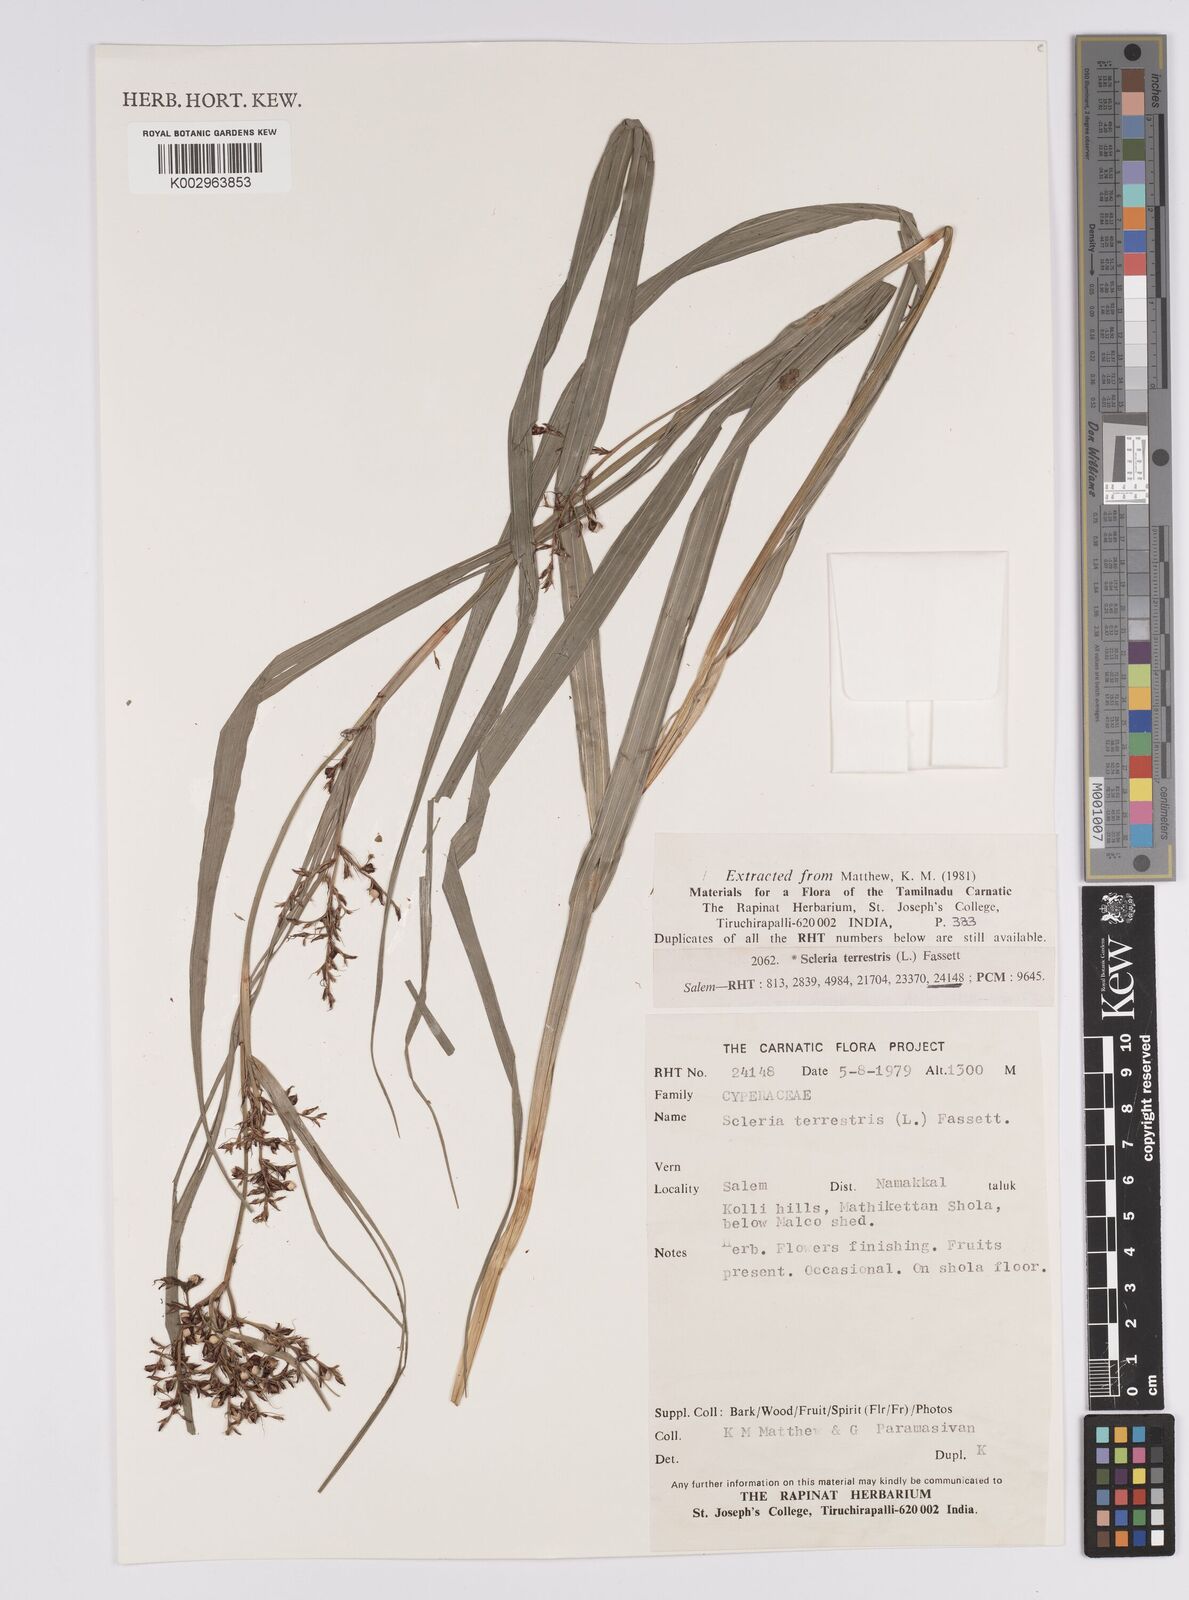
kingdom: Plantae
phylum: Tracheophyta
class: Liliopsida
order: Poales
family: Cyperaceae
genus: Scleria
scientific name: Scleria terrestris
